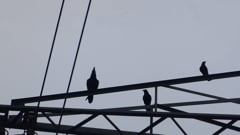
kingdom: Animalia
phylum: Chordata
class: Aves
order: Passeriformes
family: Corvidae
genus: Corvus
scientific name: Corvus corax
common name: Common raven
